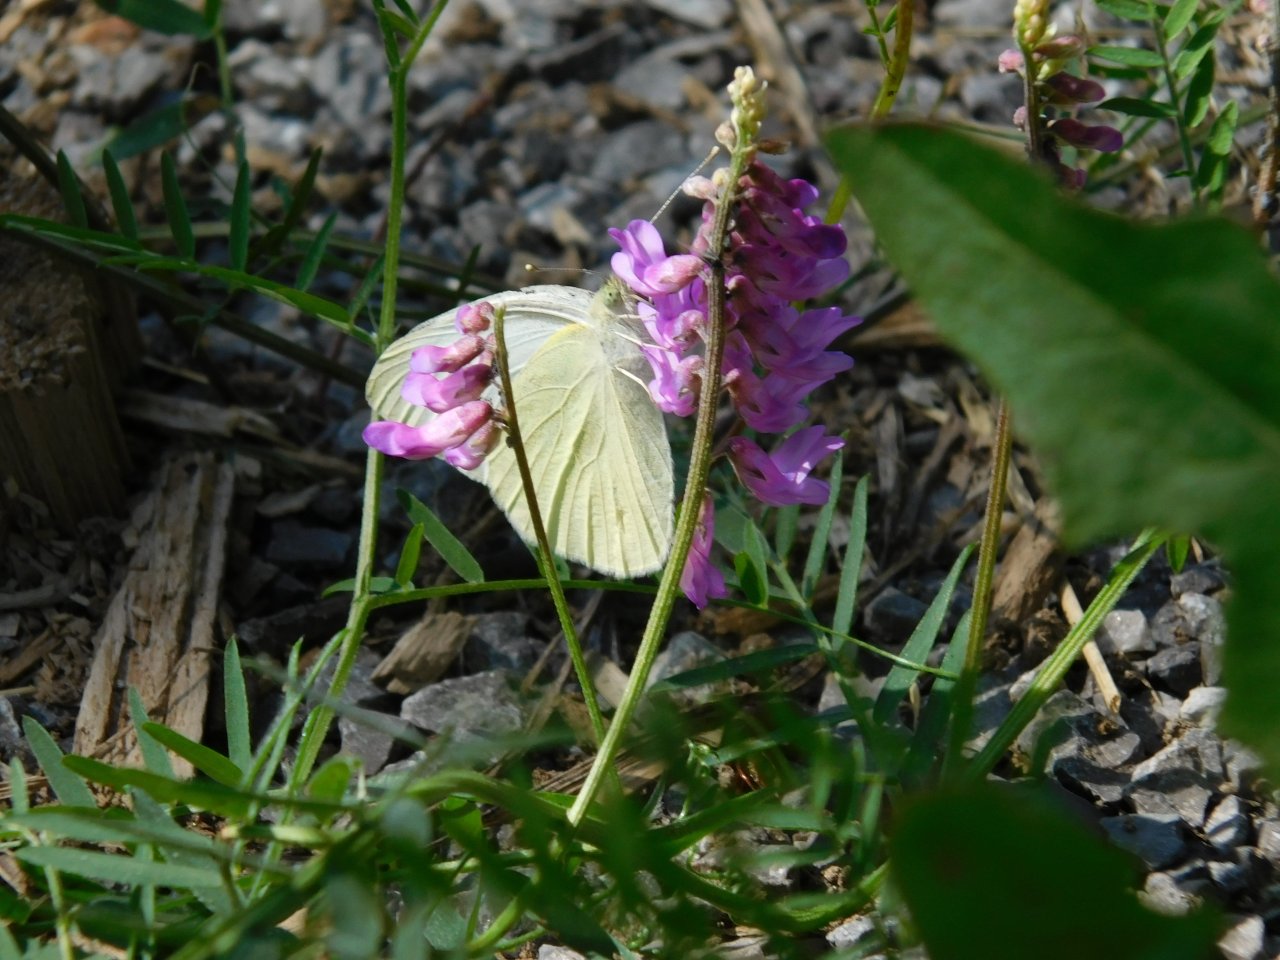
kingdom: Animalia
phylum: Arthropoda
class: Insecta
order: Lepidoptera
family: Pieridae
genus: Pieris
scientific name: Pieris oleracea
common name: Mustard White
